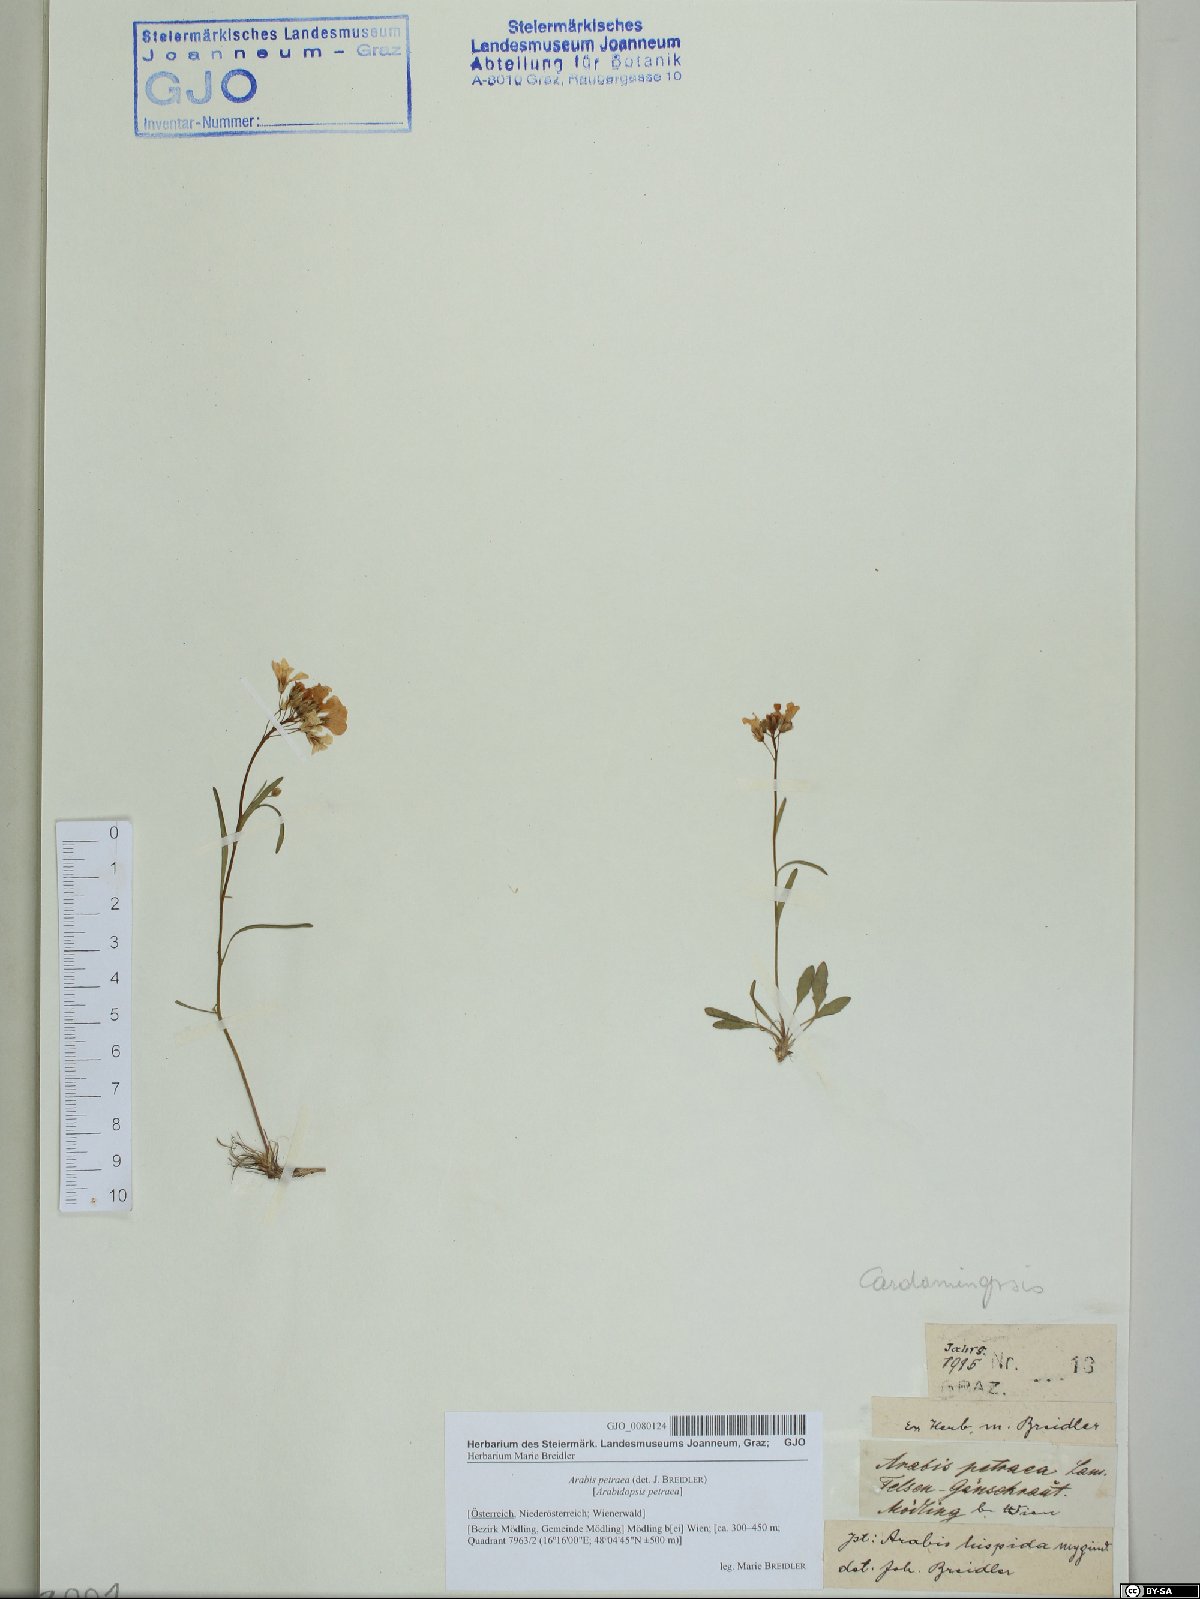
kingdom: Plantae
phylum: Tracheophyta
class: Magnoliopsida
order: Brassicales
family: Brassicaceae
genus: Arabidopsis
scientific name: Arabidopsis lyrata
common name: Lyrate rockcress
